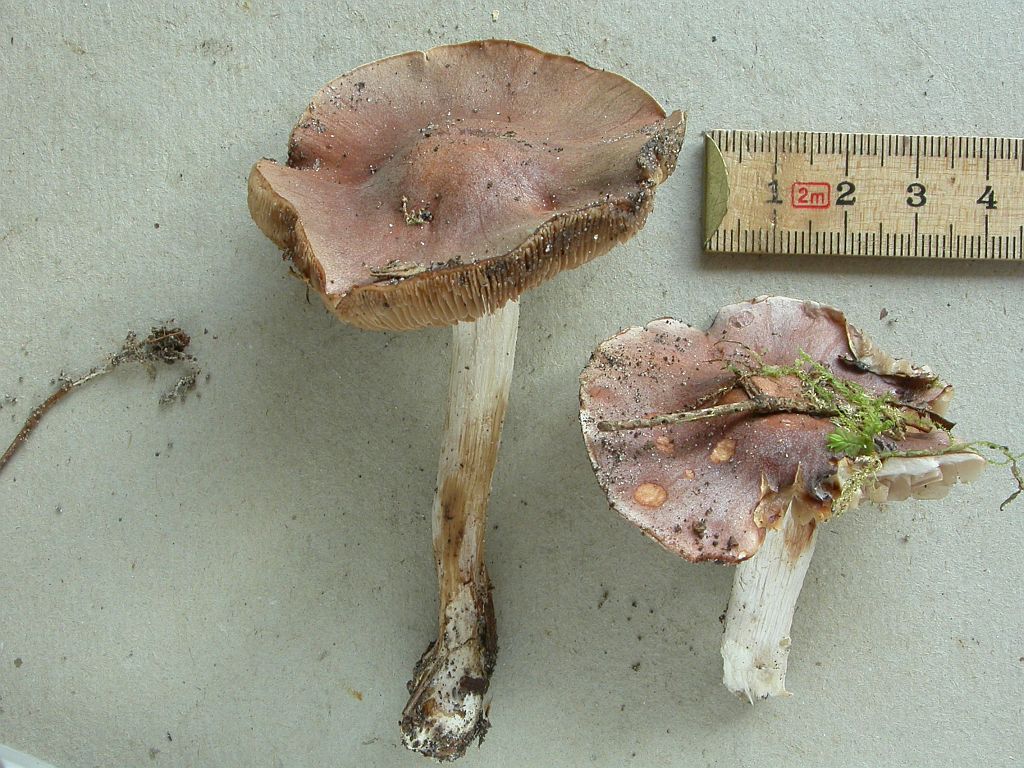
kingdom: Fungi
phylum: Basidiomycota
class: Agaricomycetes
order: Agaricales
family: Hymenogastraceae
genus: Hebeloma
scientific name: Hebeloma theobrominum
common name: rødbrun tåreblad
